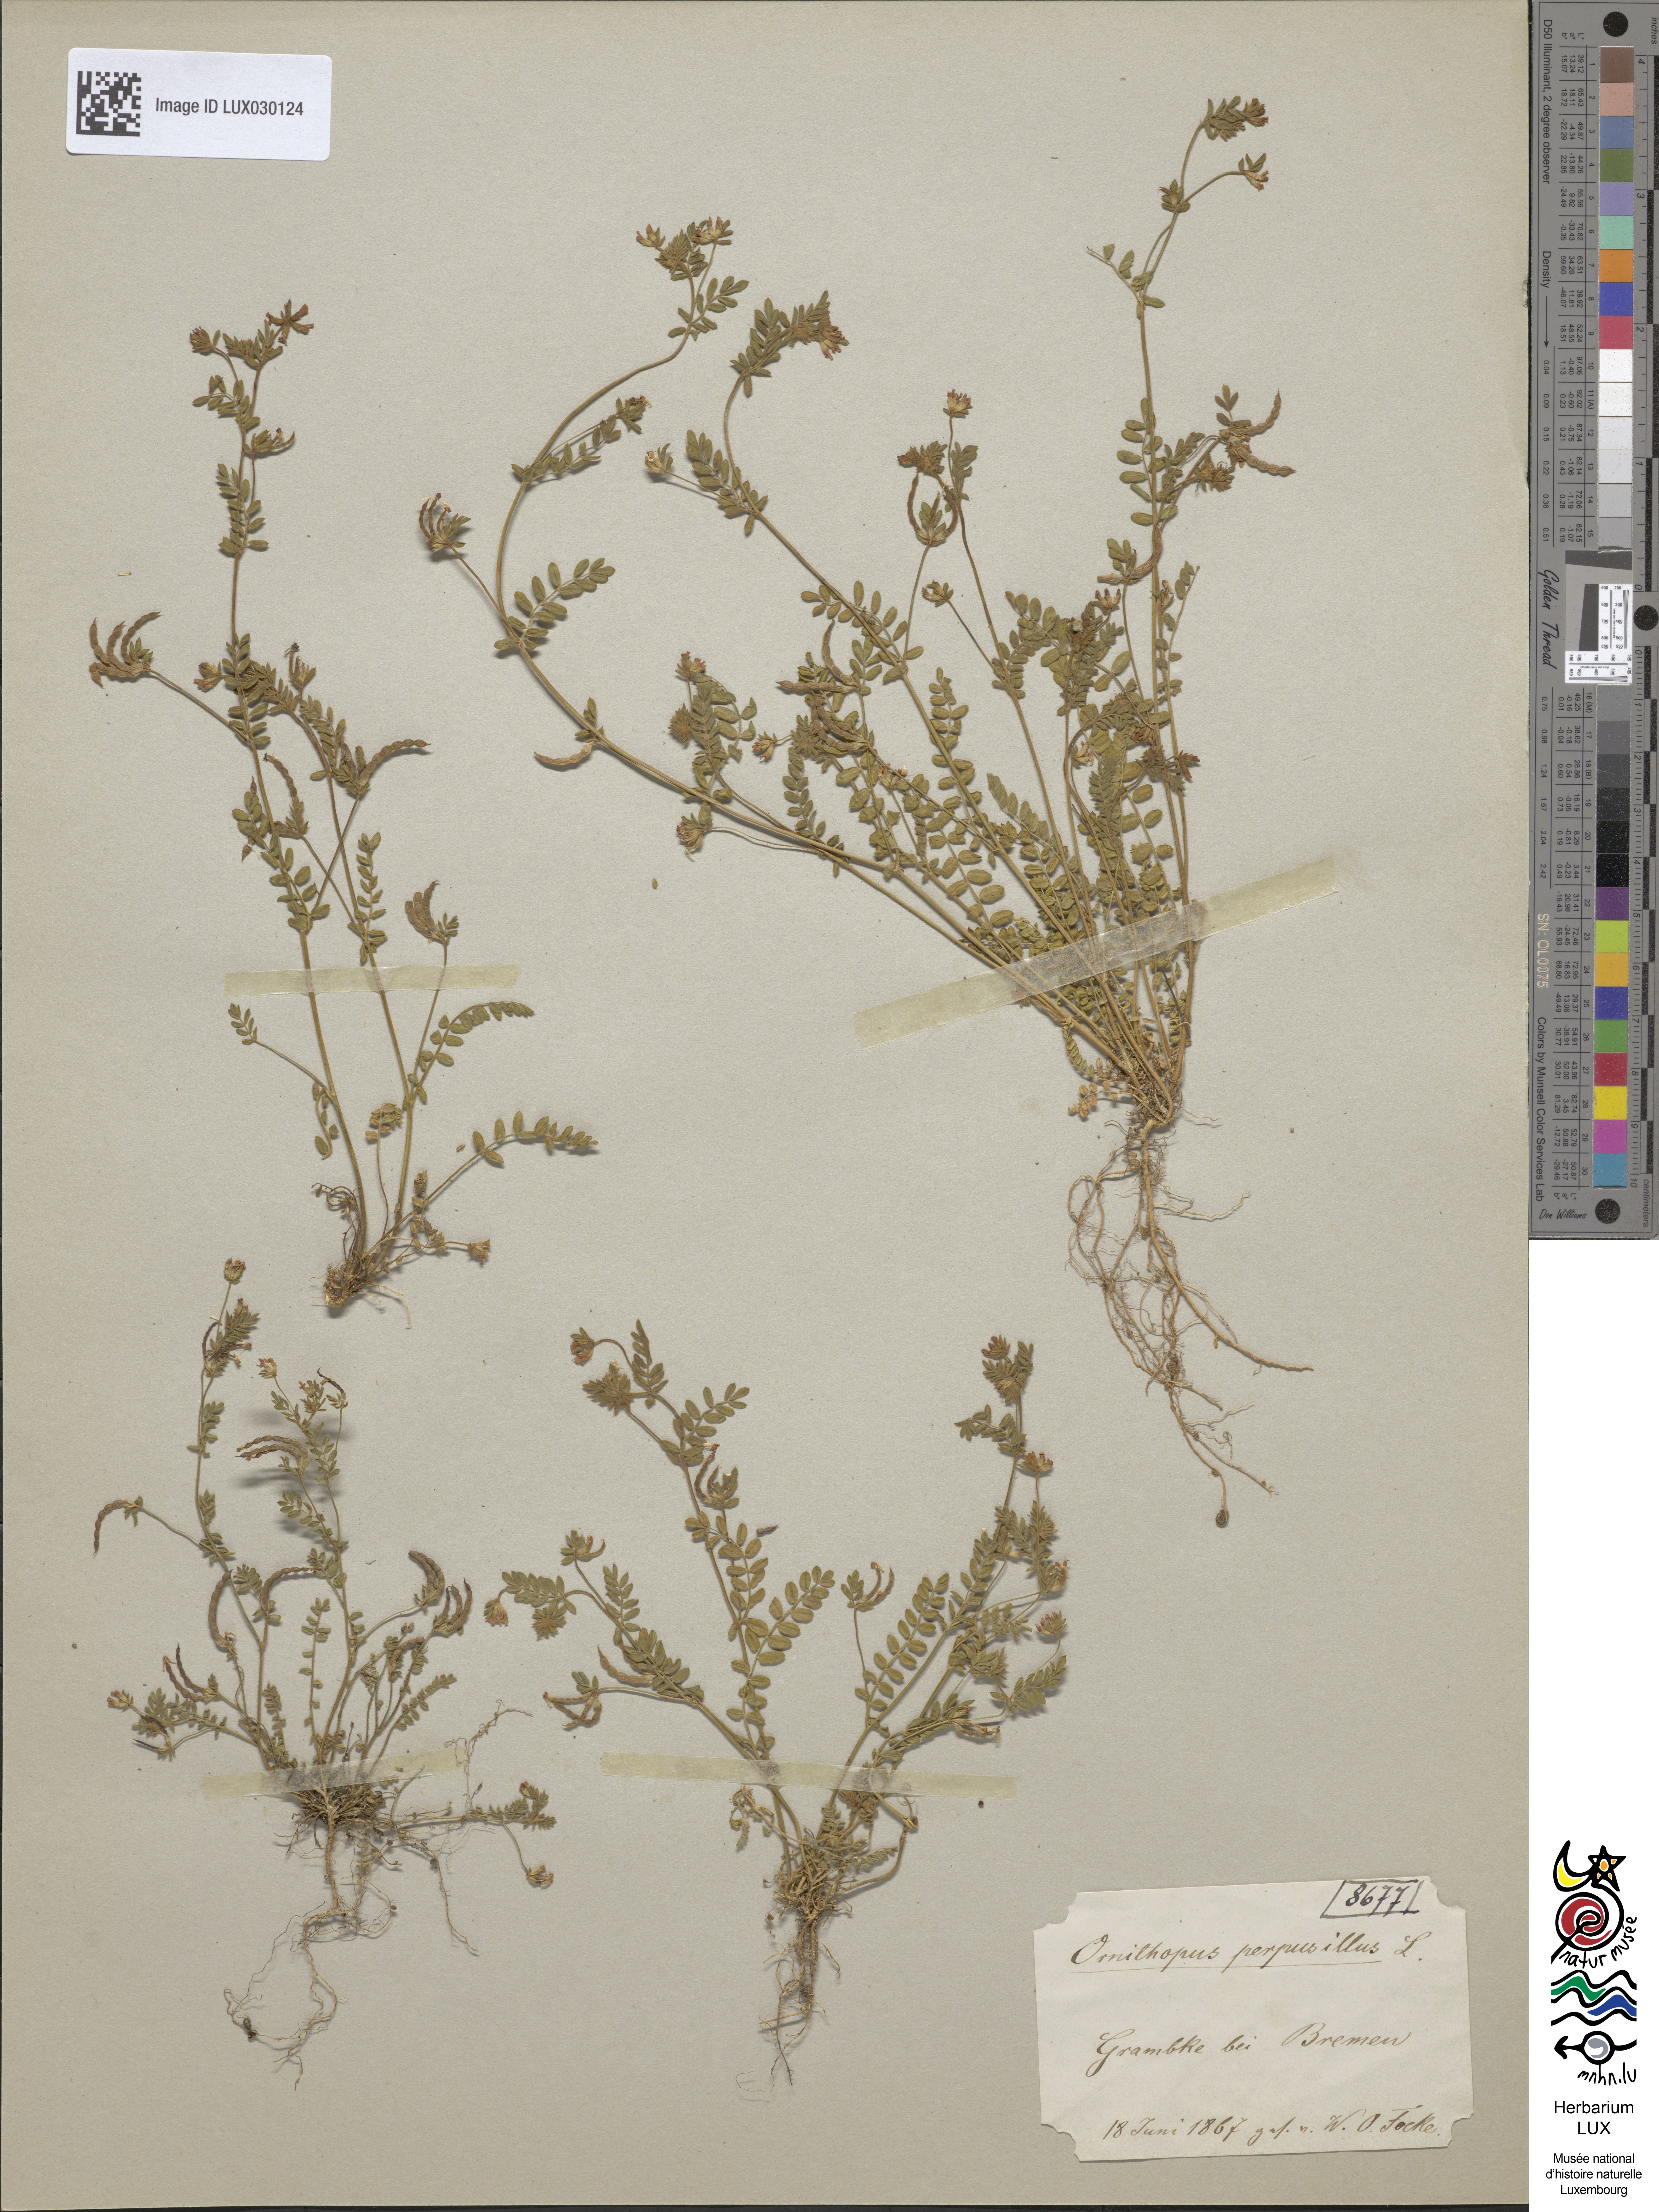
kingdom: Plantae
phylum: Tracheophyta
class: Magnoliopsida
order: Fabales
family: Fabaceae
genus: Ornithopus
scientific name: Ornithopus perpusillus
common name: Bird's-foot
